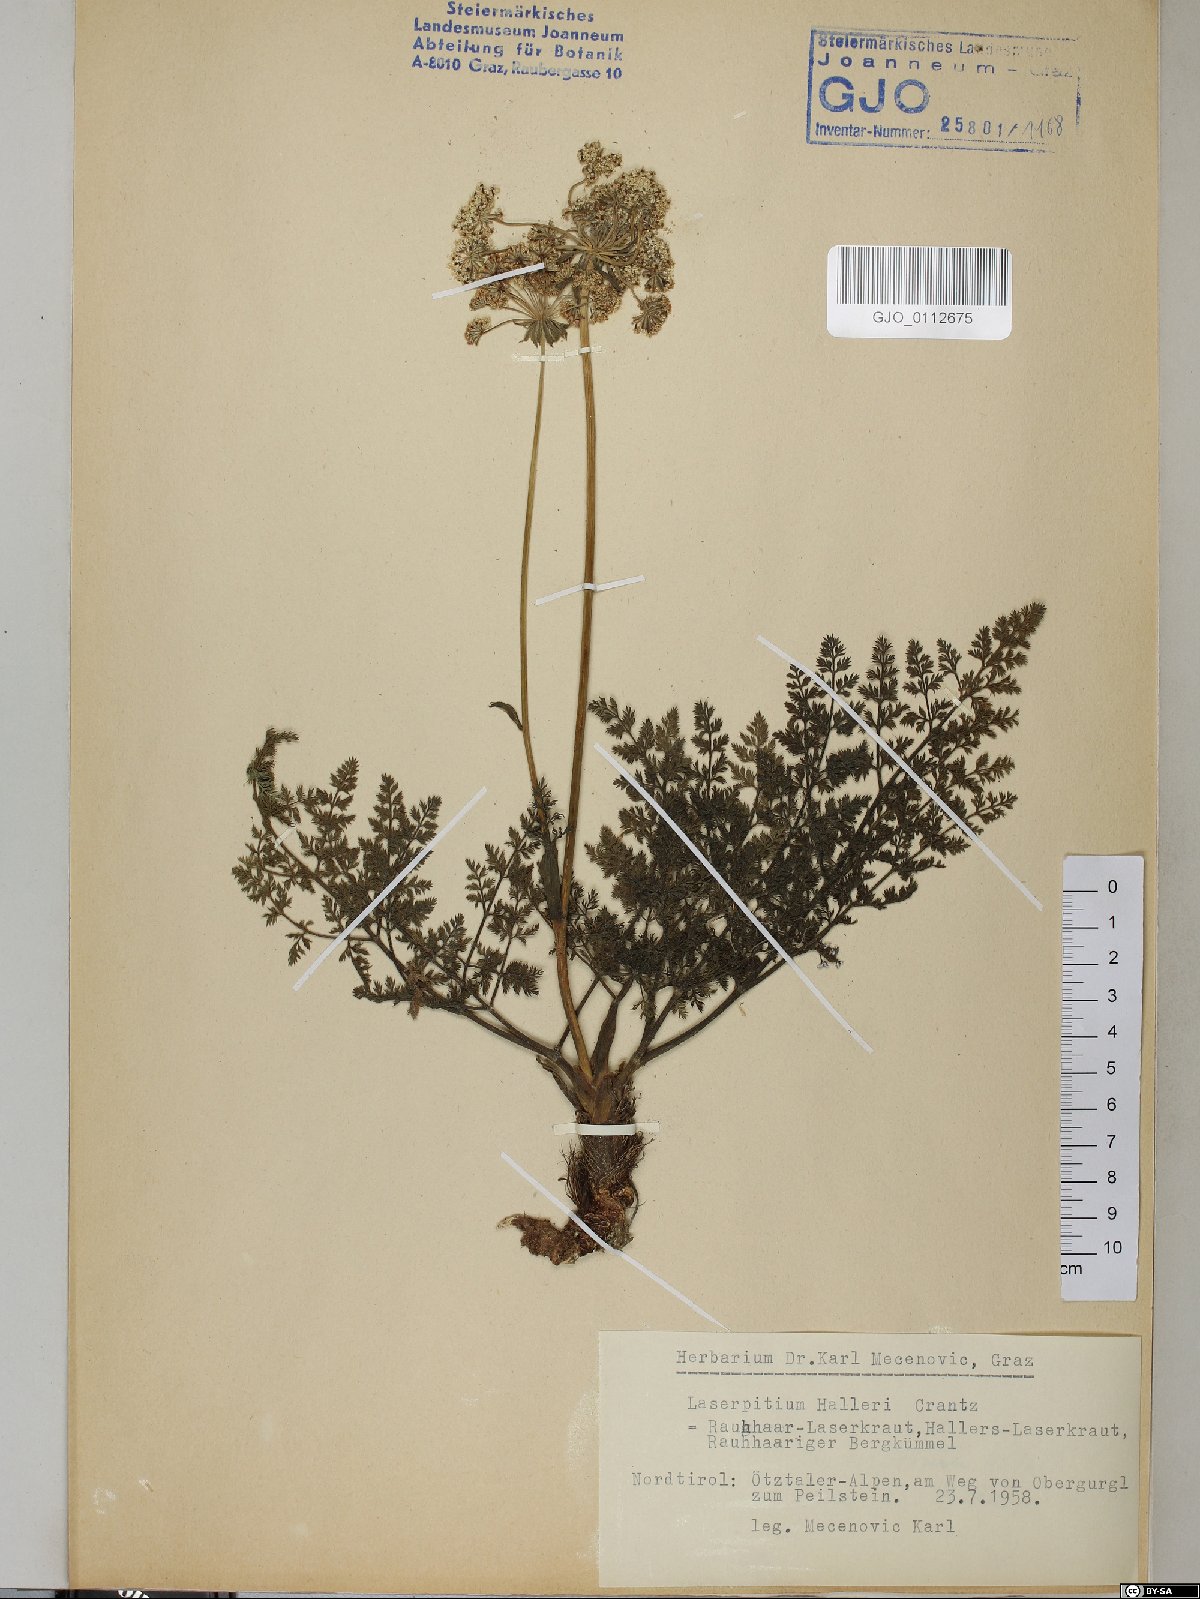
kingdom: Plantae
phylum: Tracheophyta
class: Magnoliopsida
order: Apiales
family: Apiaceae
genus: Laserpitium
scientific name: Laserpitium halleri
